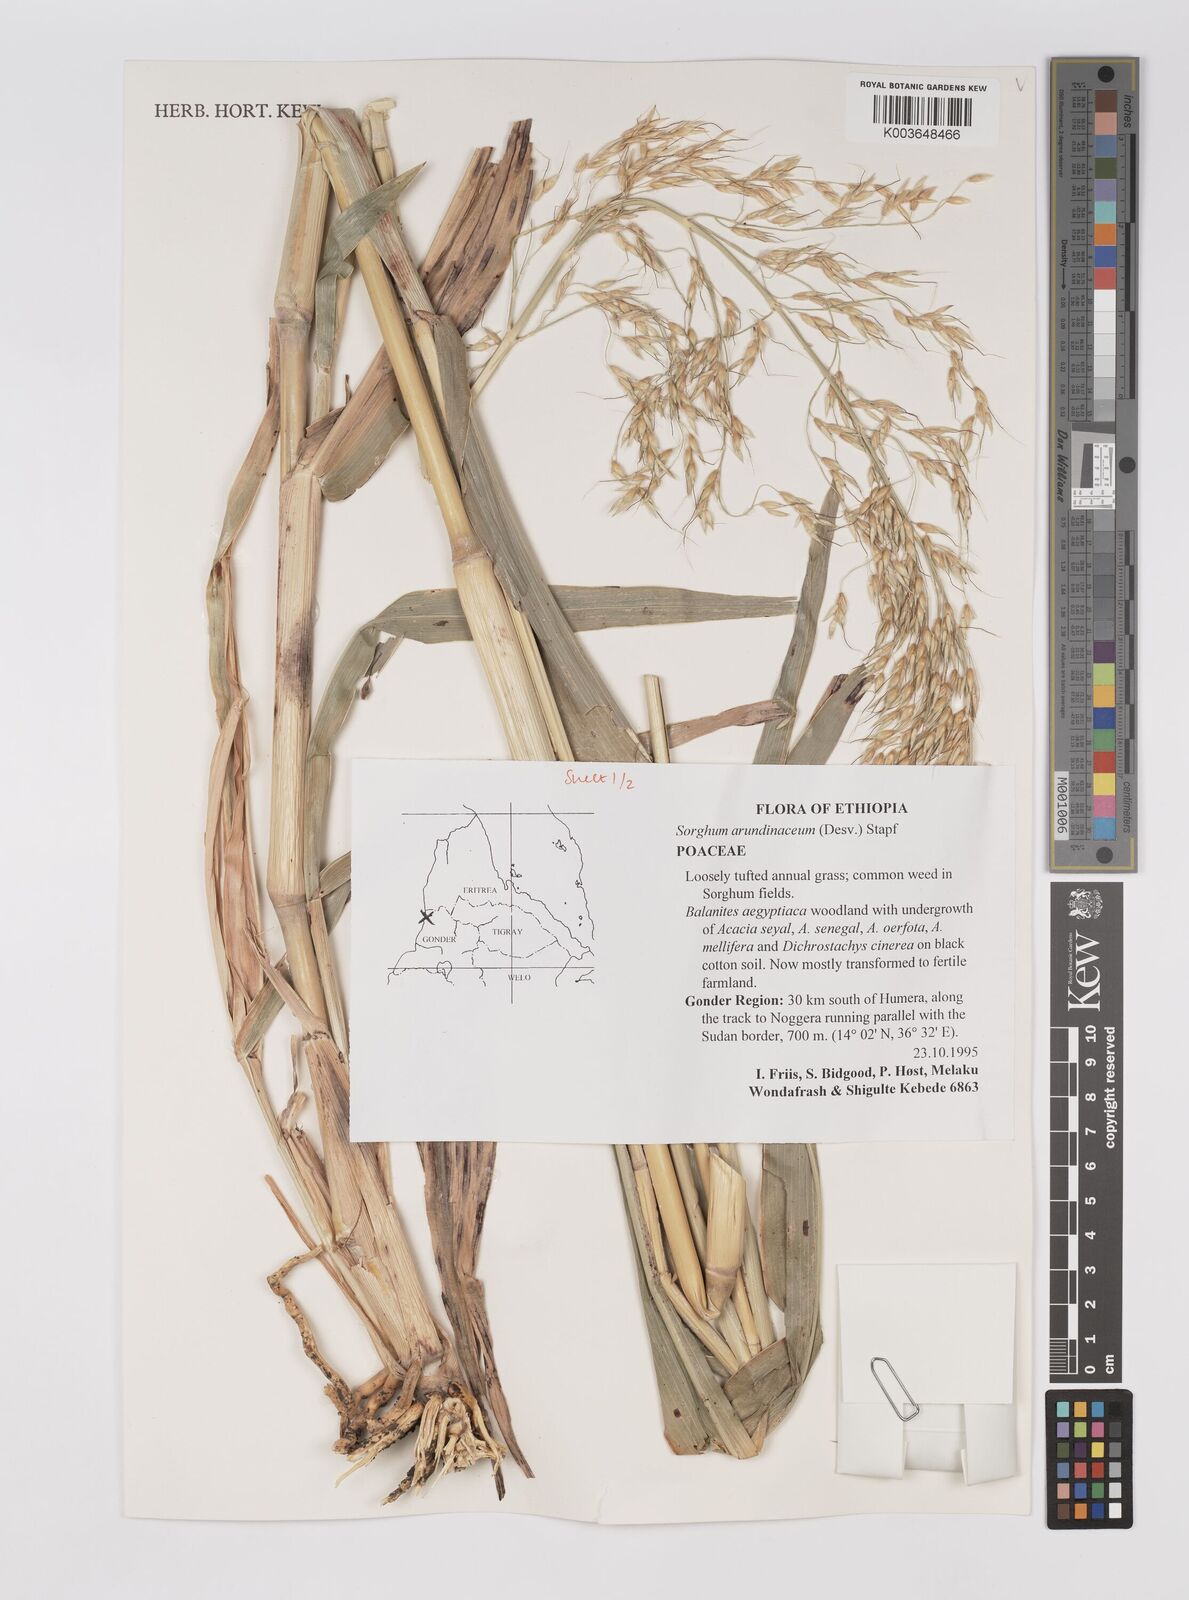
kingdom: Plantae
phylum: Tracheophyta
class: Liliopsida
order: Poales
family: Poaceae
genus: Sorghum
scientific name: Sorghum arundinaceum
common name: Sorghum
